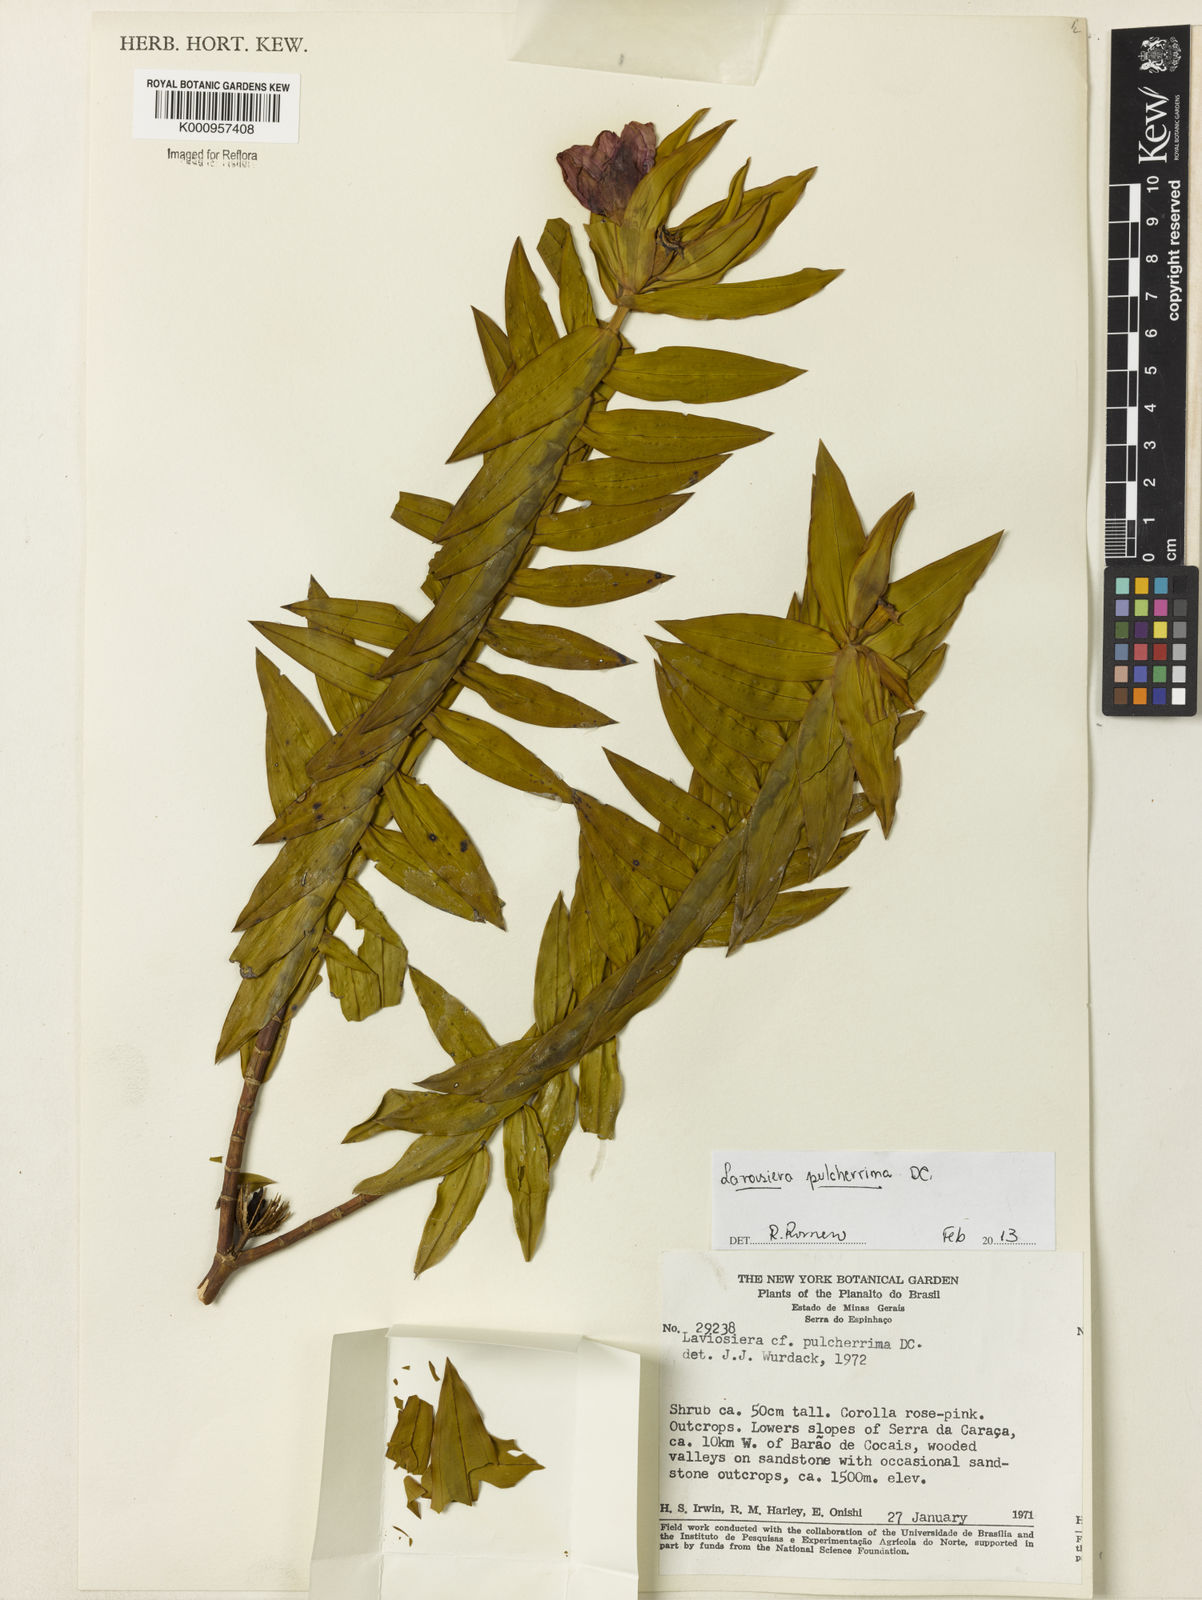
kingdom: Plantae
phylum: Tracheophyta
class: Magnoliopsida
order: Myrtales
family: Melastomataceae
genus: Microlicia
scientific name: Microlicia pulcherrima
